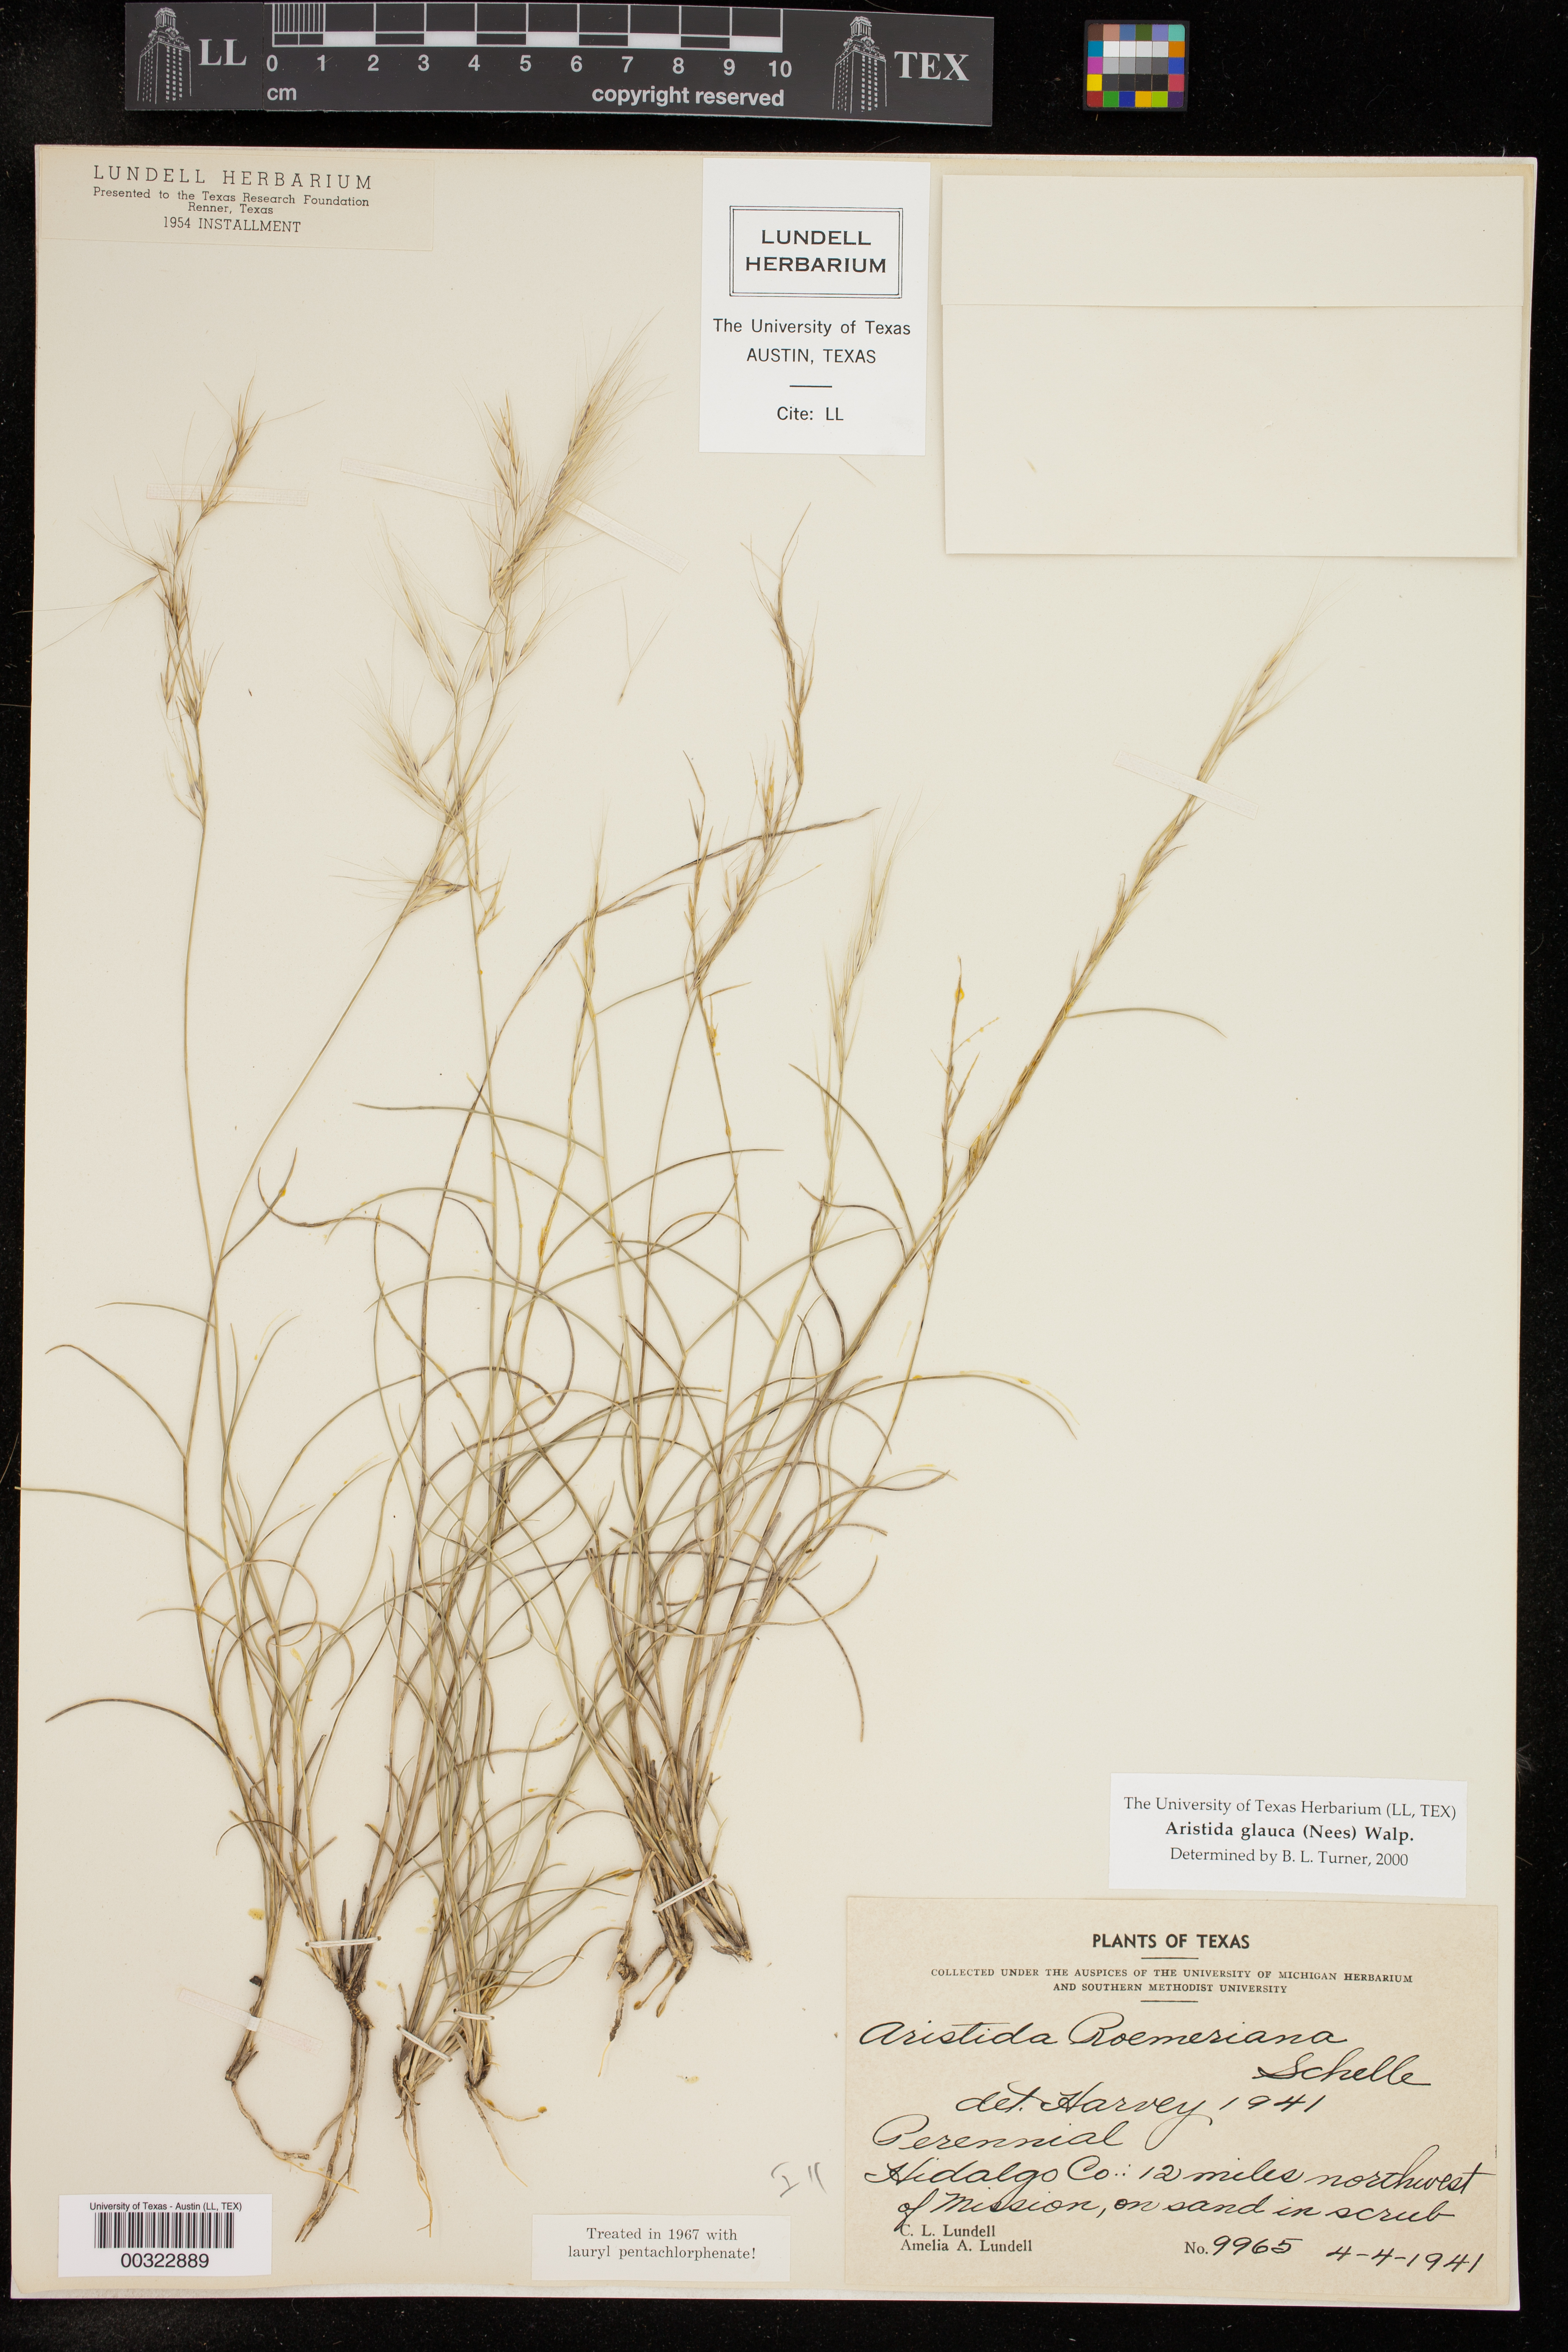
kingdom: Plantae
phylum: Tracheophyta
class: Liliopsida
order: Poales
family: Poaceae
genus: Aristida
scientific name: Aristida glauca
